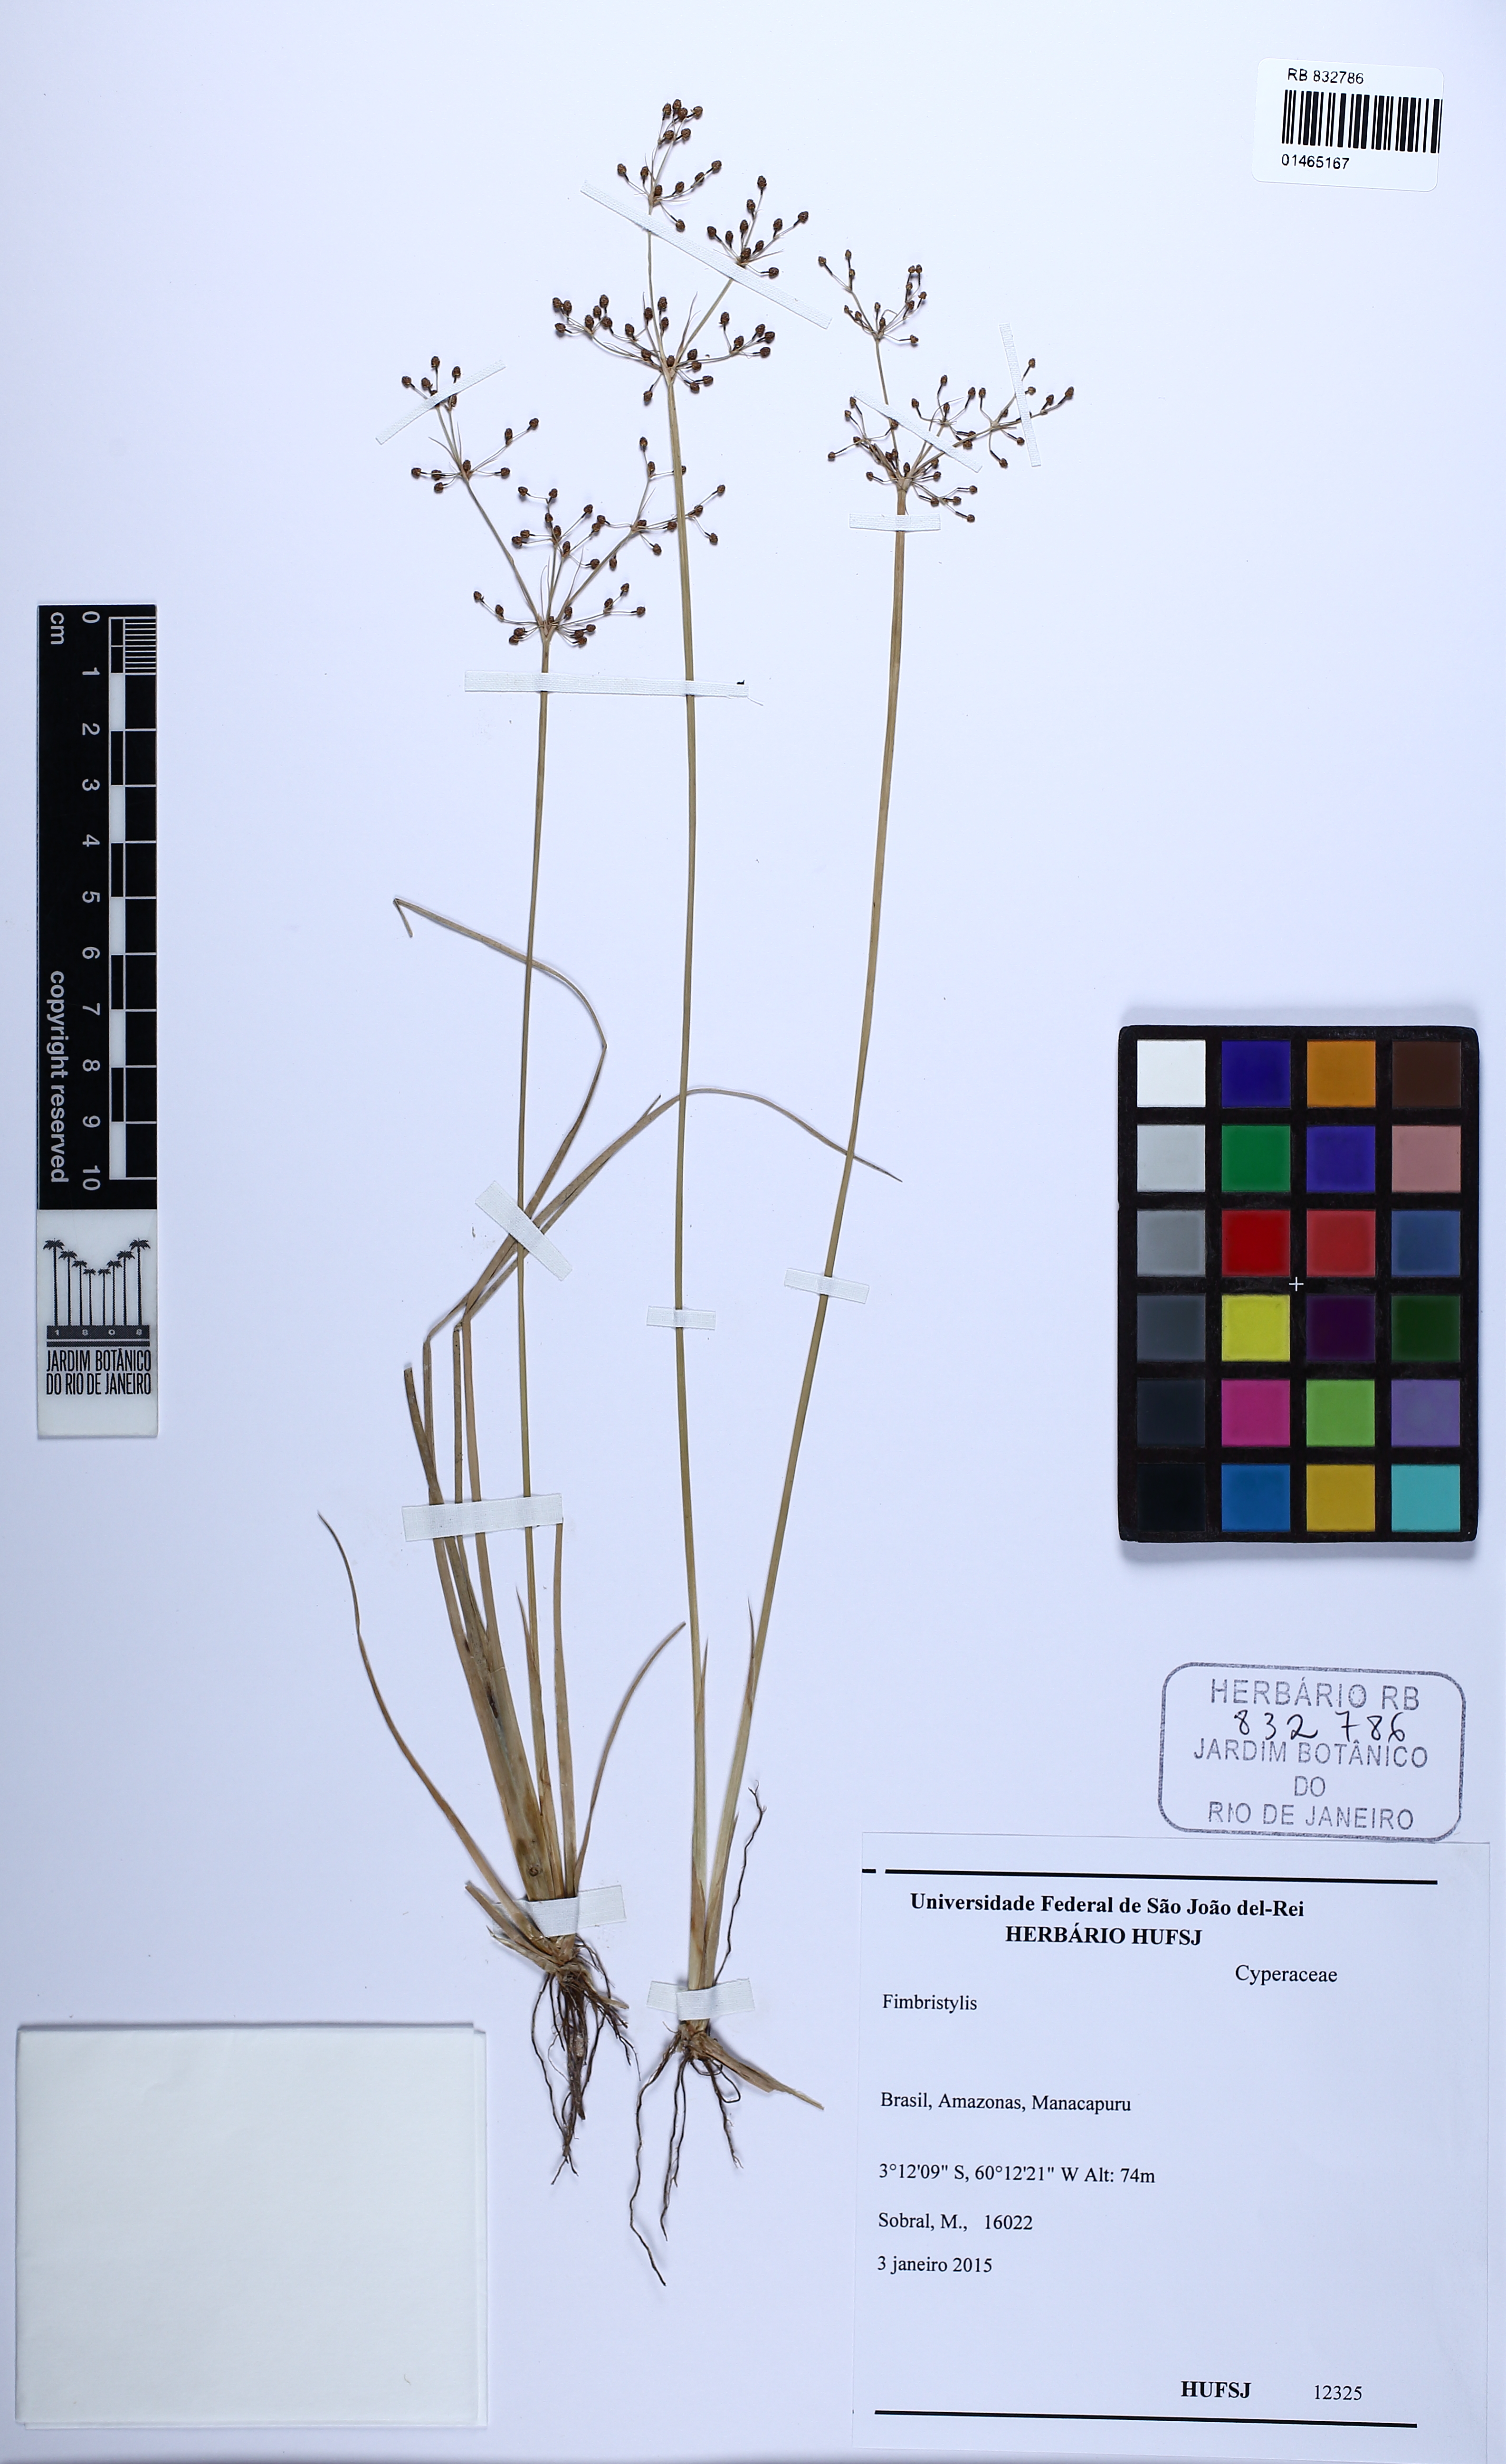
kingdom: Plantae
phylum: Tracheophyta
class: Liliopsida
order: Poales
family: Cyperaceae
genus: Fimbristylis
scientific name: Fimbristylis
